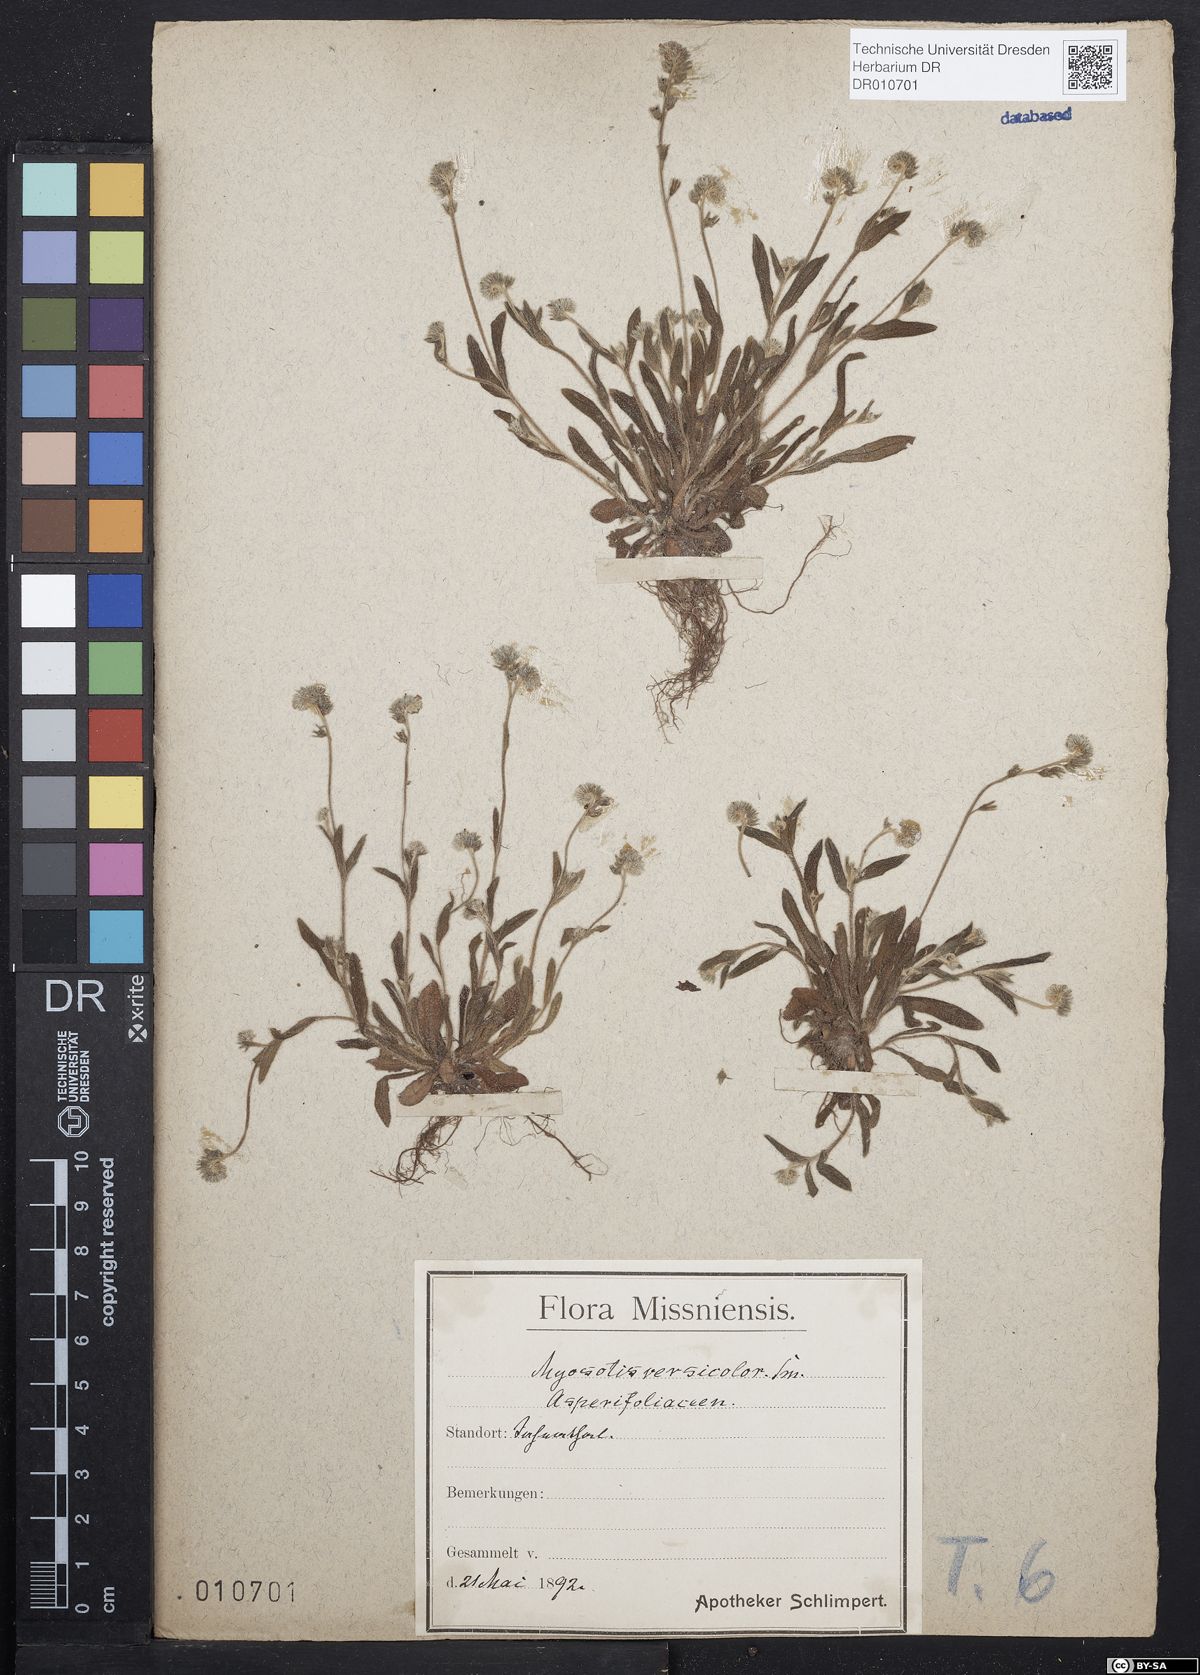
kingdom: Plantae
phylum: Tracheophyta
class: Magnoliopsida
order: Boraginales
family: Boraginaceae
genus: Myosotis
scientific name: Myosotis discolor
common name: Changing forget-me-not
